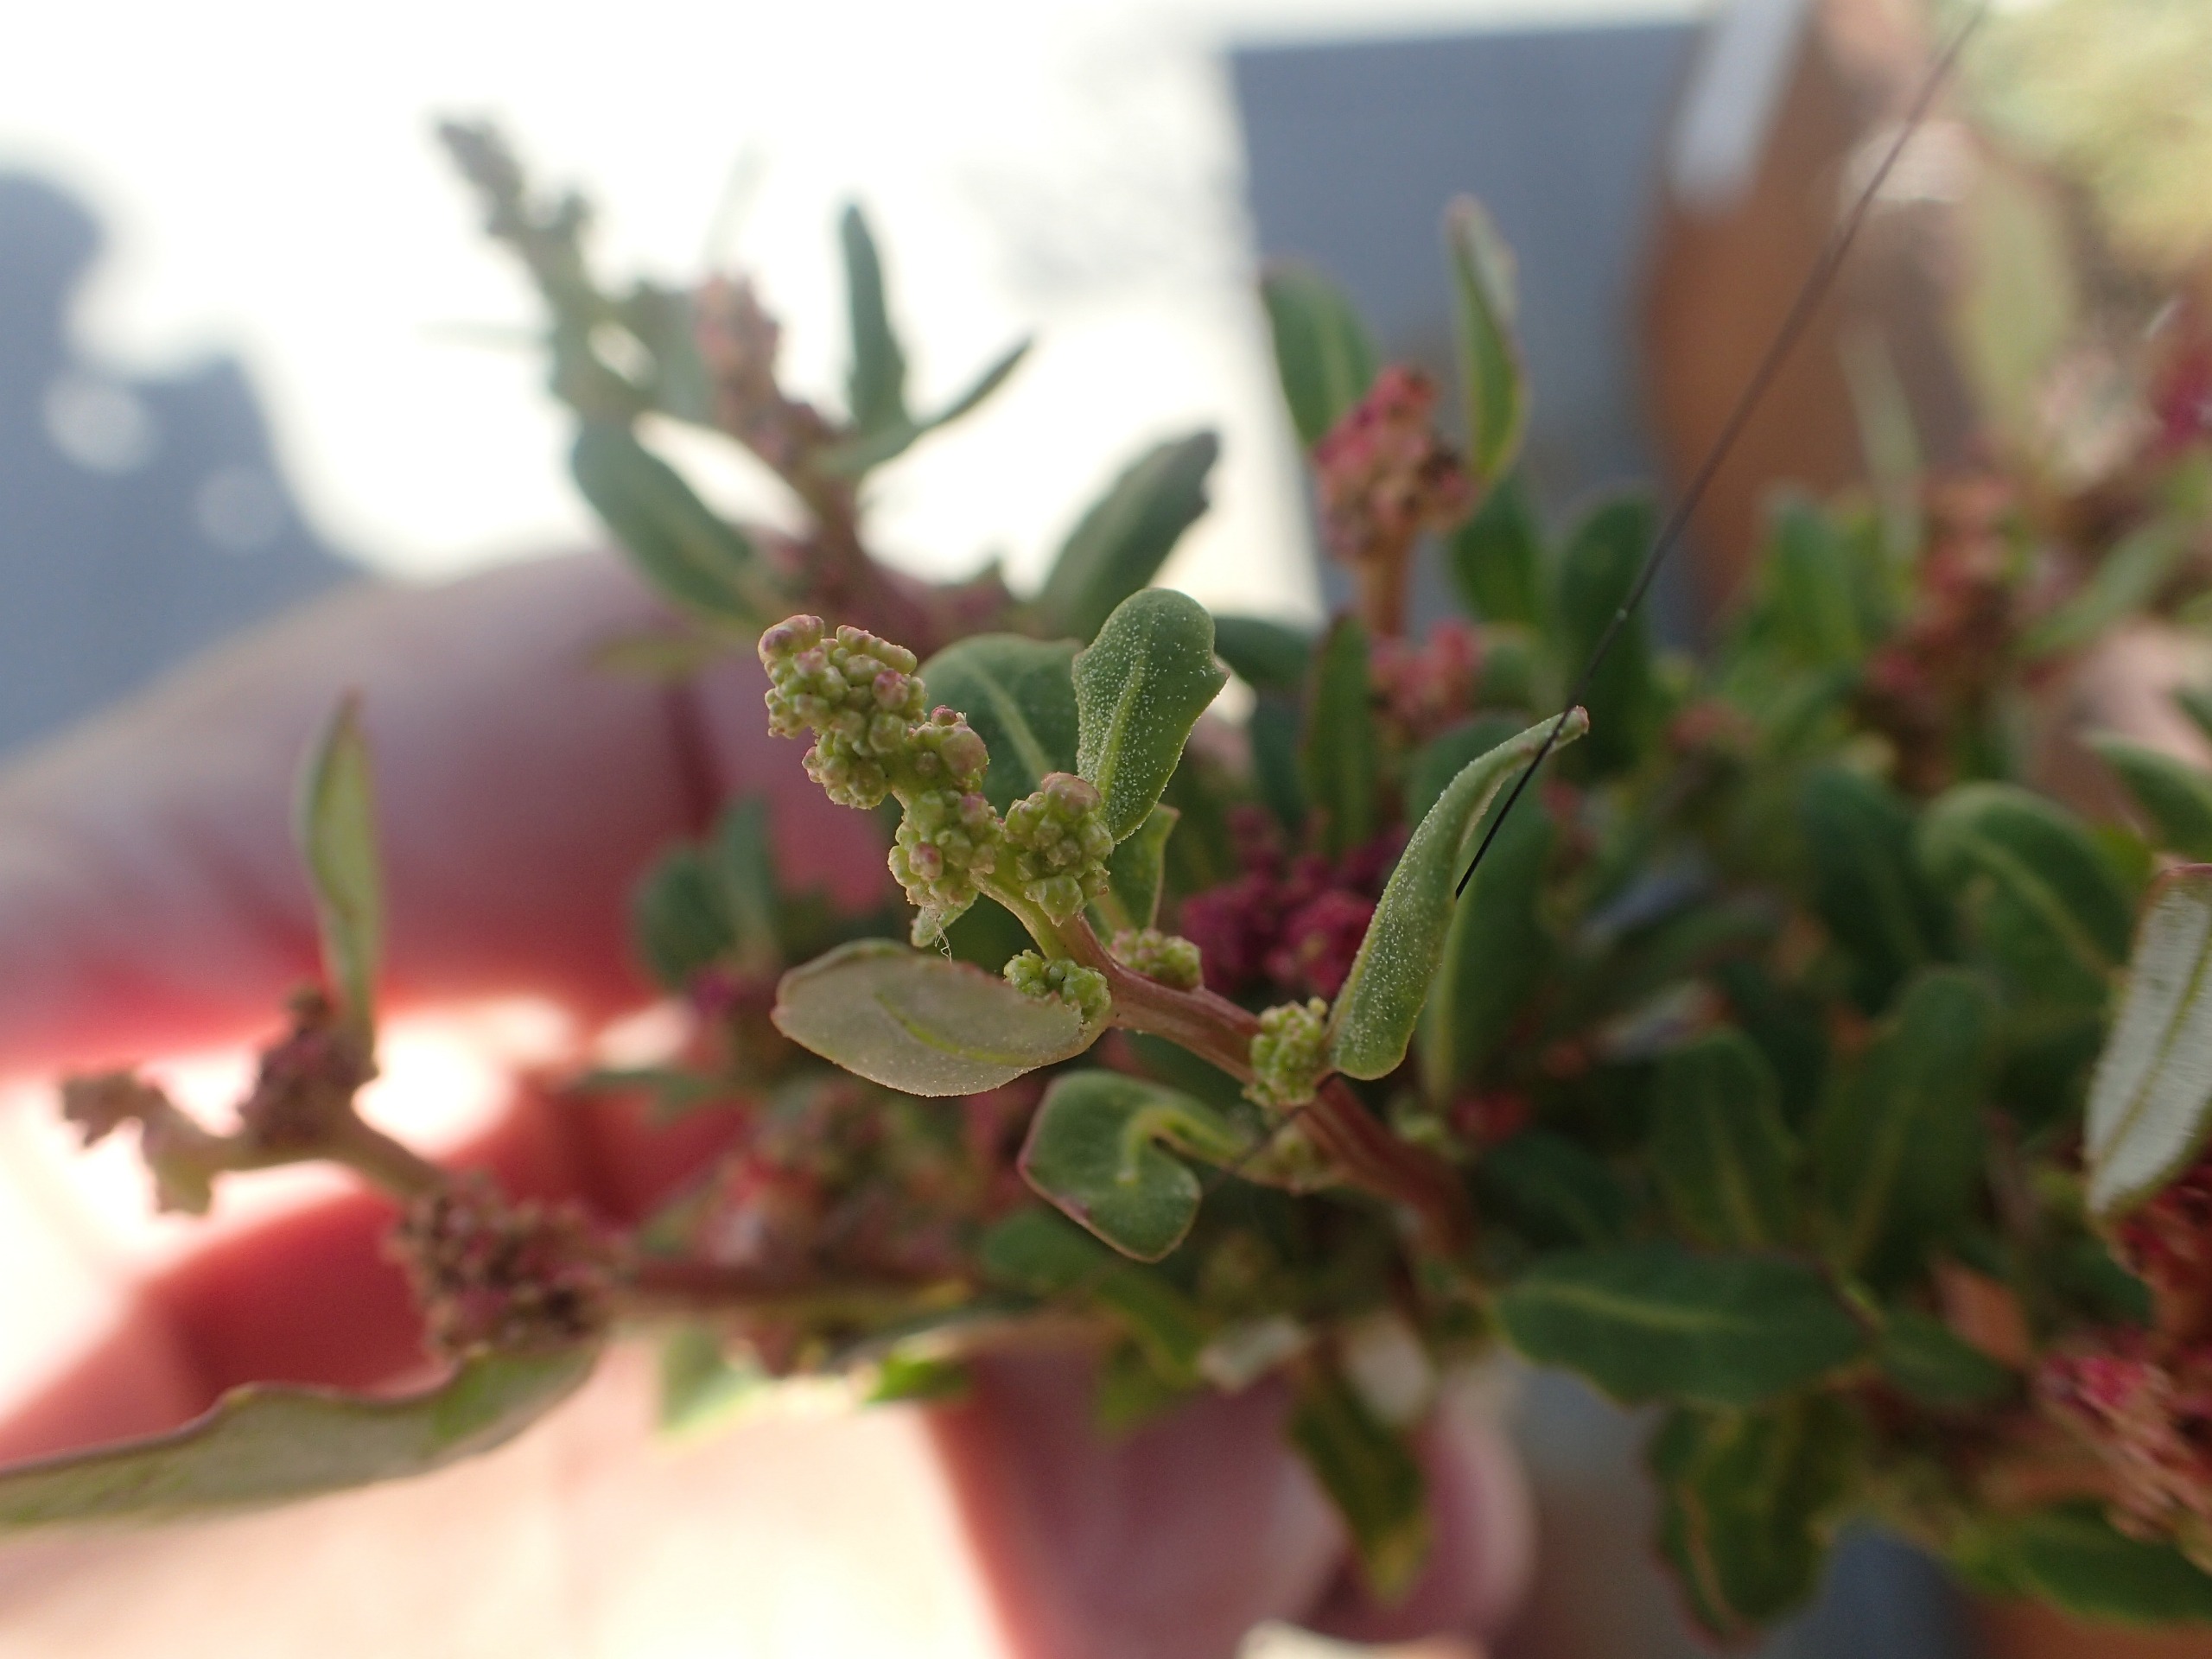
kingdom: Plantae
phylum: Tracheophyta
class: Magnoliopsida
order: Caryophyllales
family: Amaranthaceae
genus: Oxybasis
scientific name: Oxybasis glauca
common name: Blågrøn gåsefod
